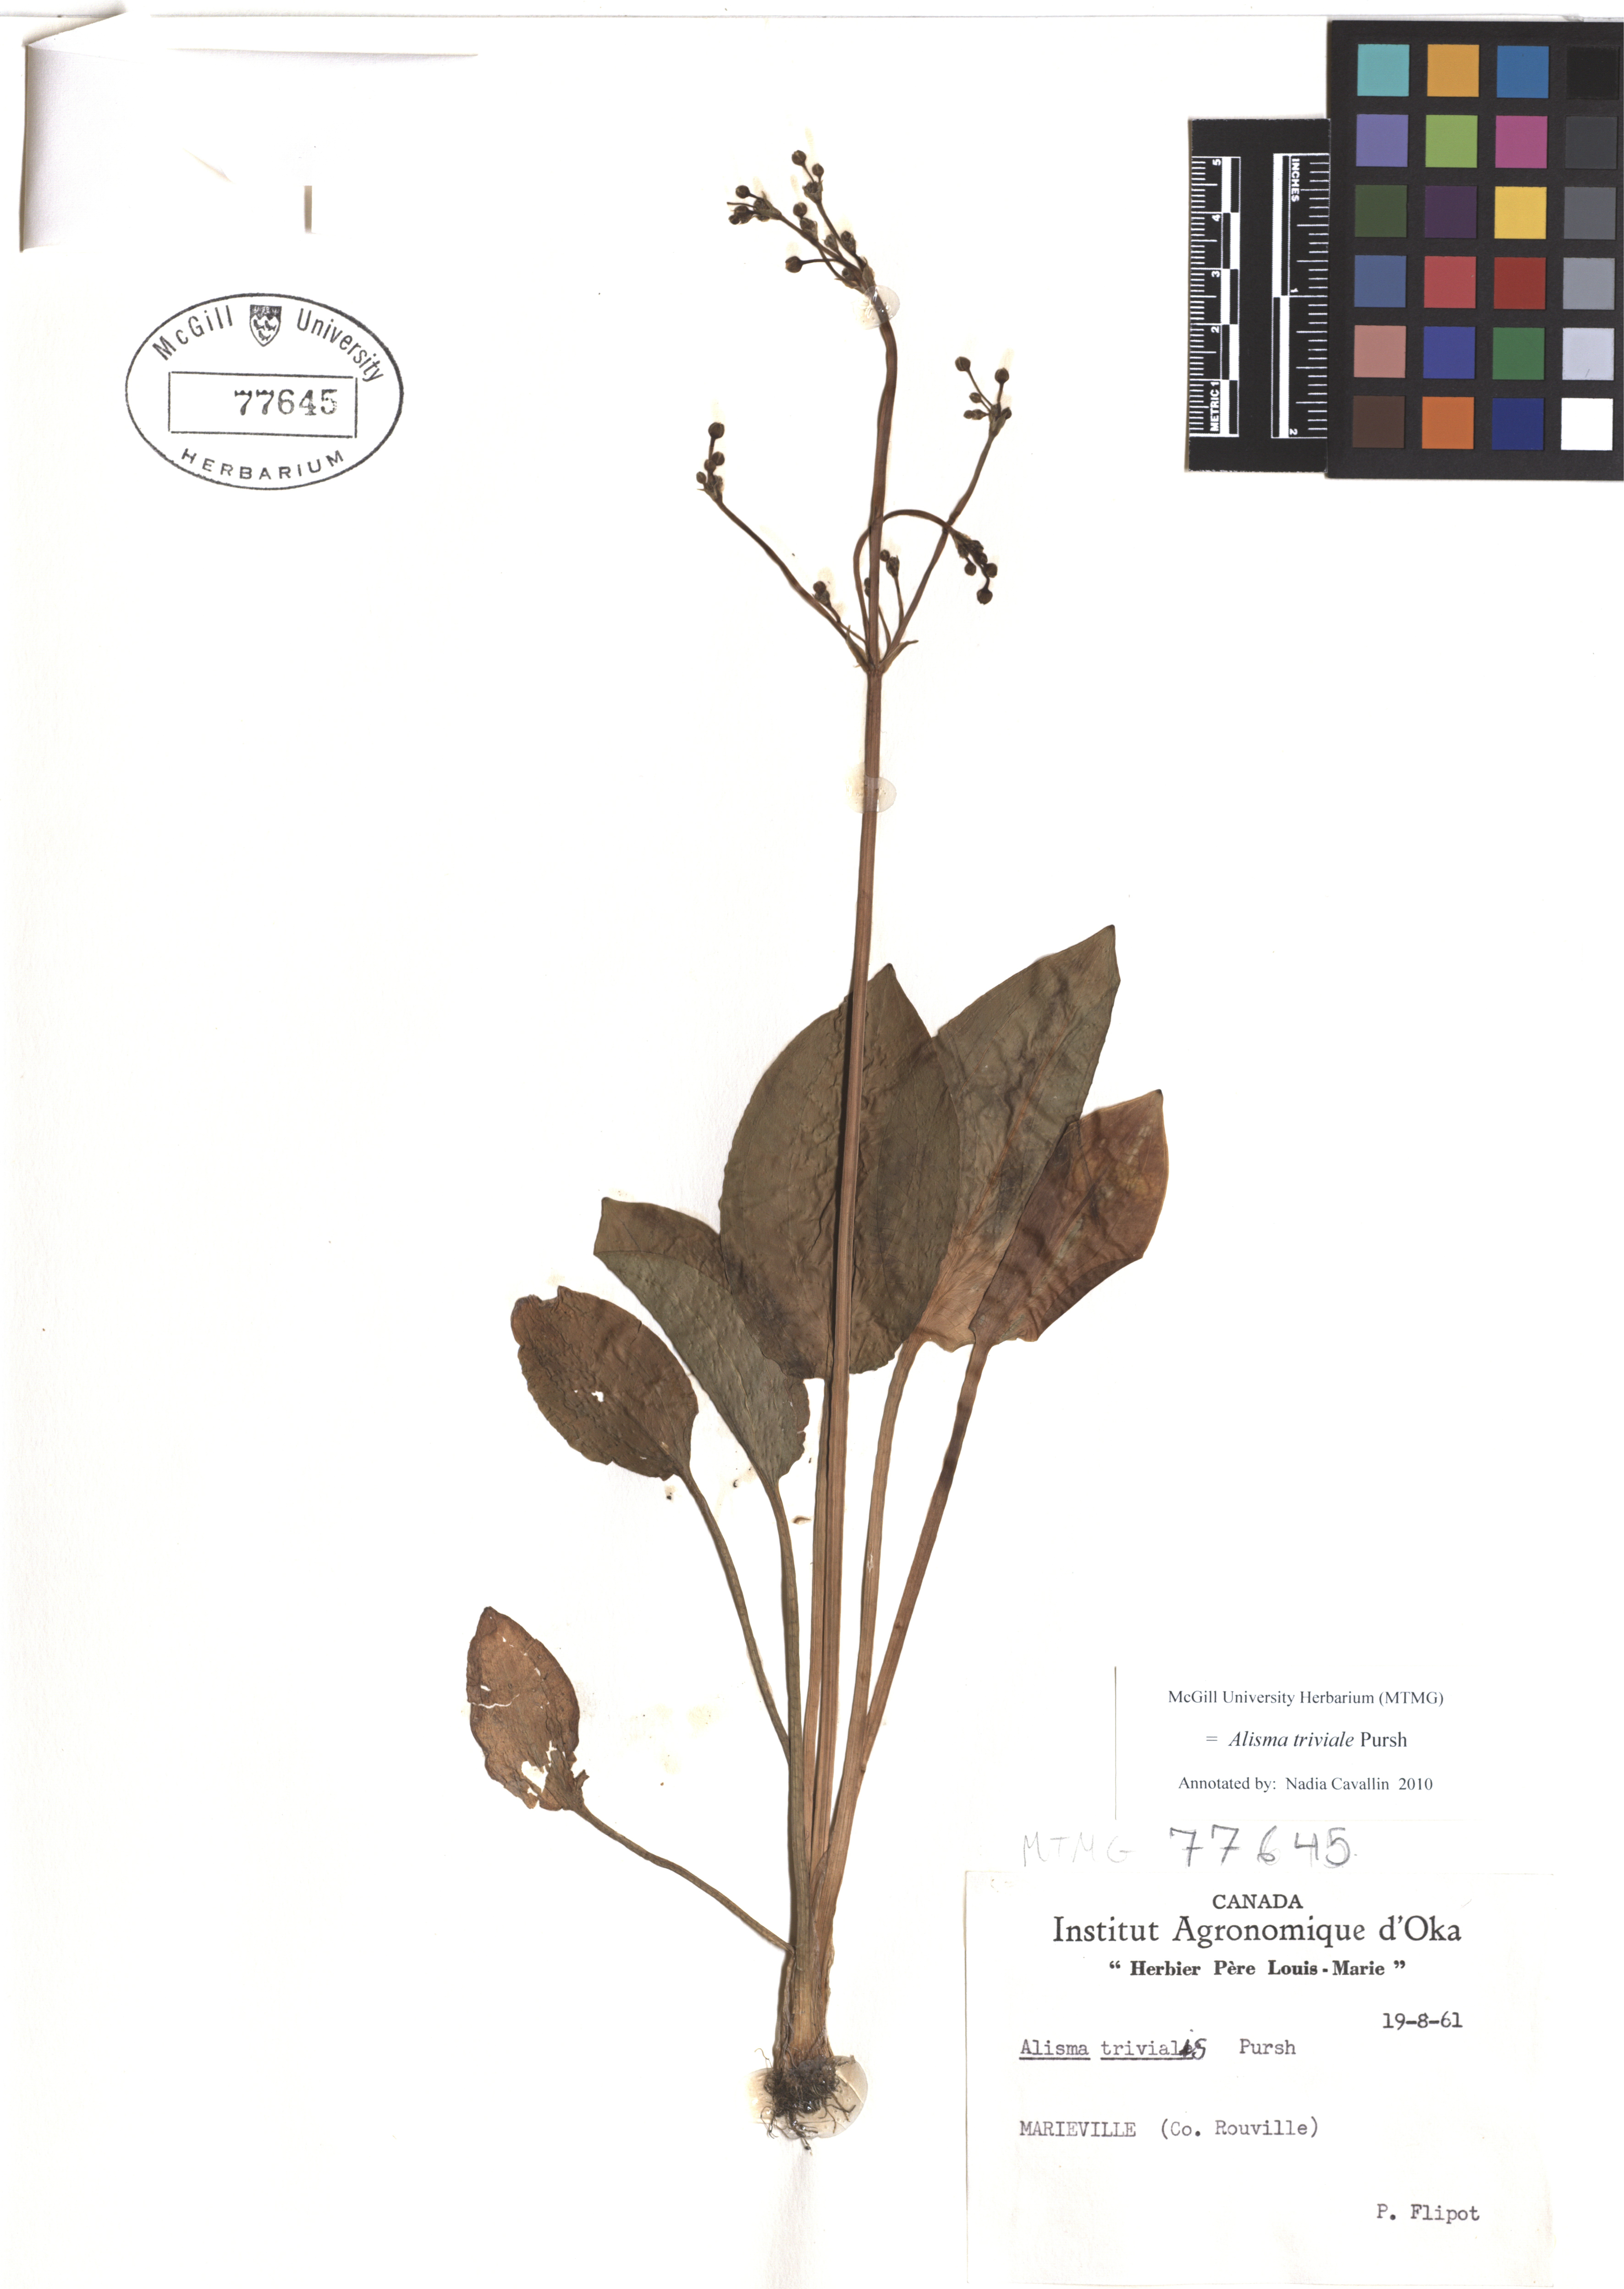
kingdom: Plantae
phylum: Tracheophyta
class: Liliopsida
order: Alismatales
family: Alismataceae
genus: Alisma
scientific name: Alisma triviale
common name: Northern water-plantain
